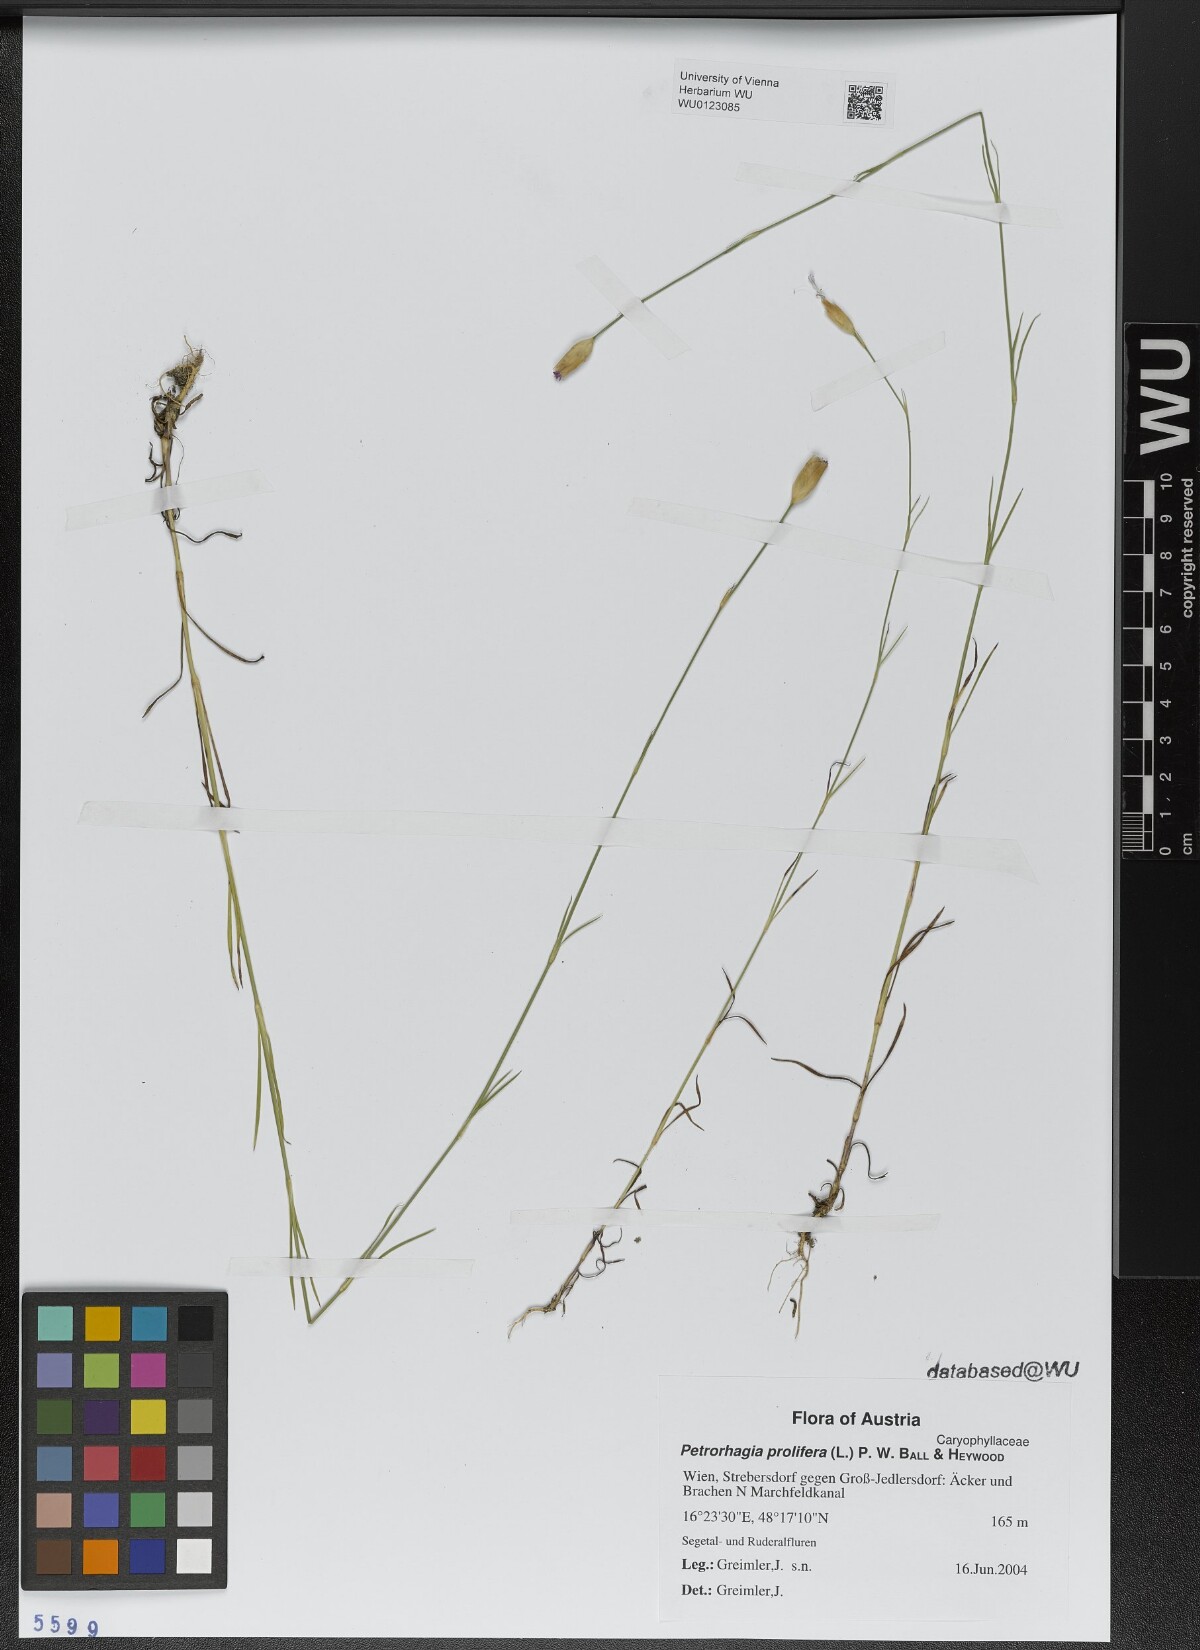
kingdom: Plantae
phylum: Tracheophyta
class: Magnoliopsida
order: Caryophyllales
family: Caryophyllaceae
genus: Petrorhagia
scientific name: Petrorhagia prolifera
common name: Proliferous pink
